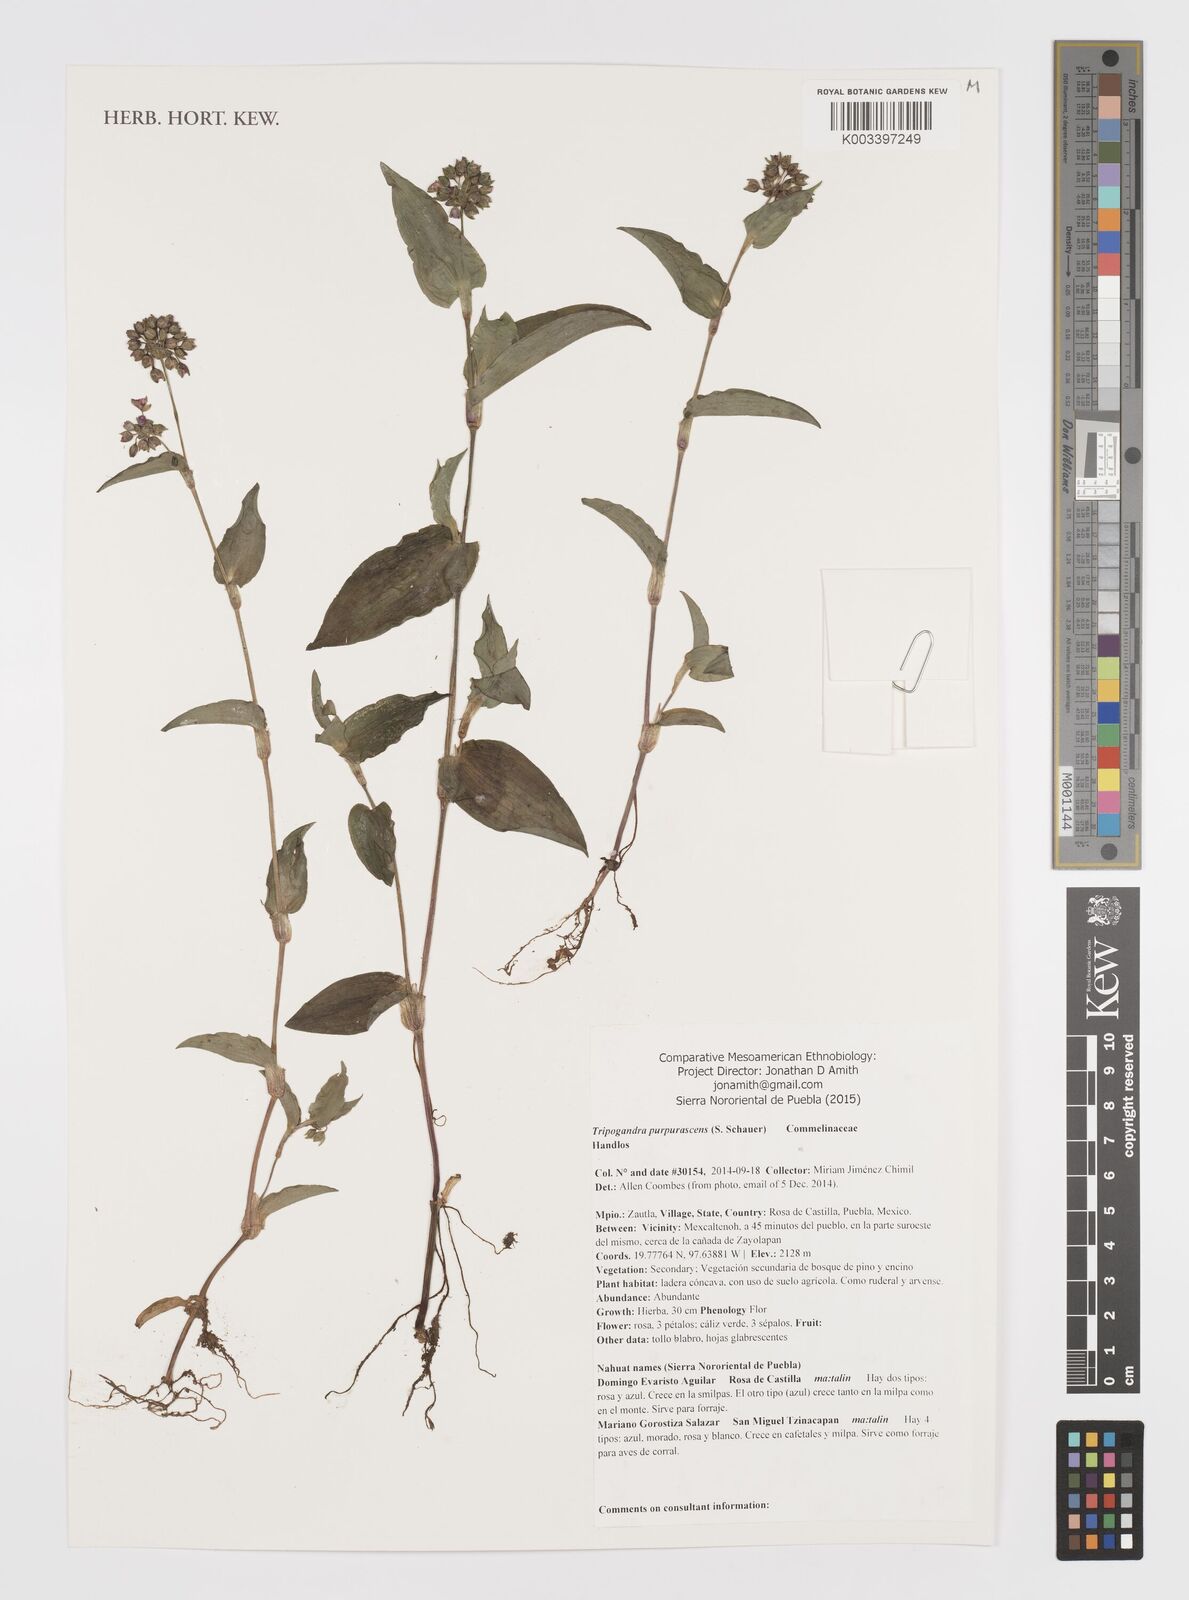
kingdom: Plantae
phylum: Tracheophyta
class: Liliopsida
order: Commelinales
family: Commelinaceae
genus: Callisia
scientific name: Callisia purpurascens
